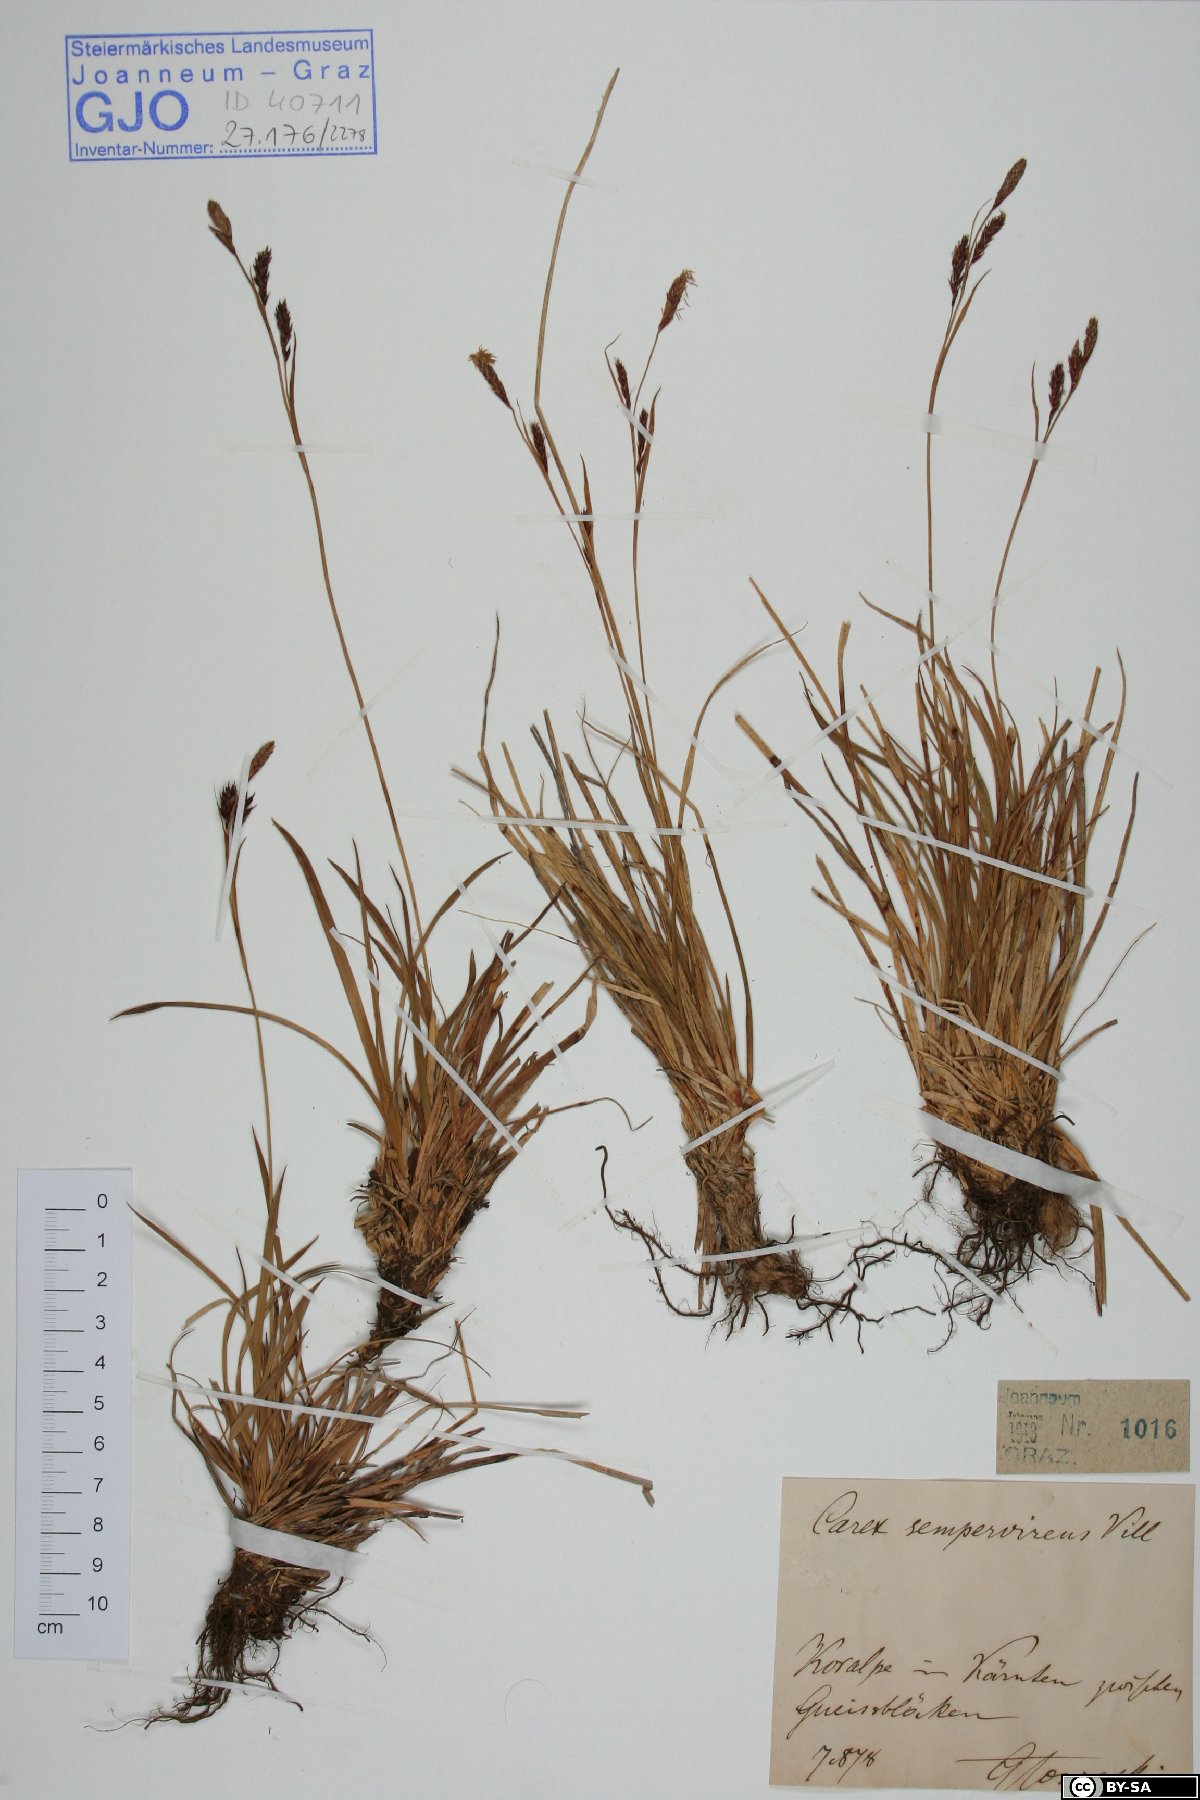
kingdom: Plantae
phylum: Tracheophyta
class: Liliopsida
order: Poales
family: Cyperaceae
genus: Carex
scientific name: Carex sempervirens
